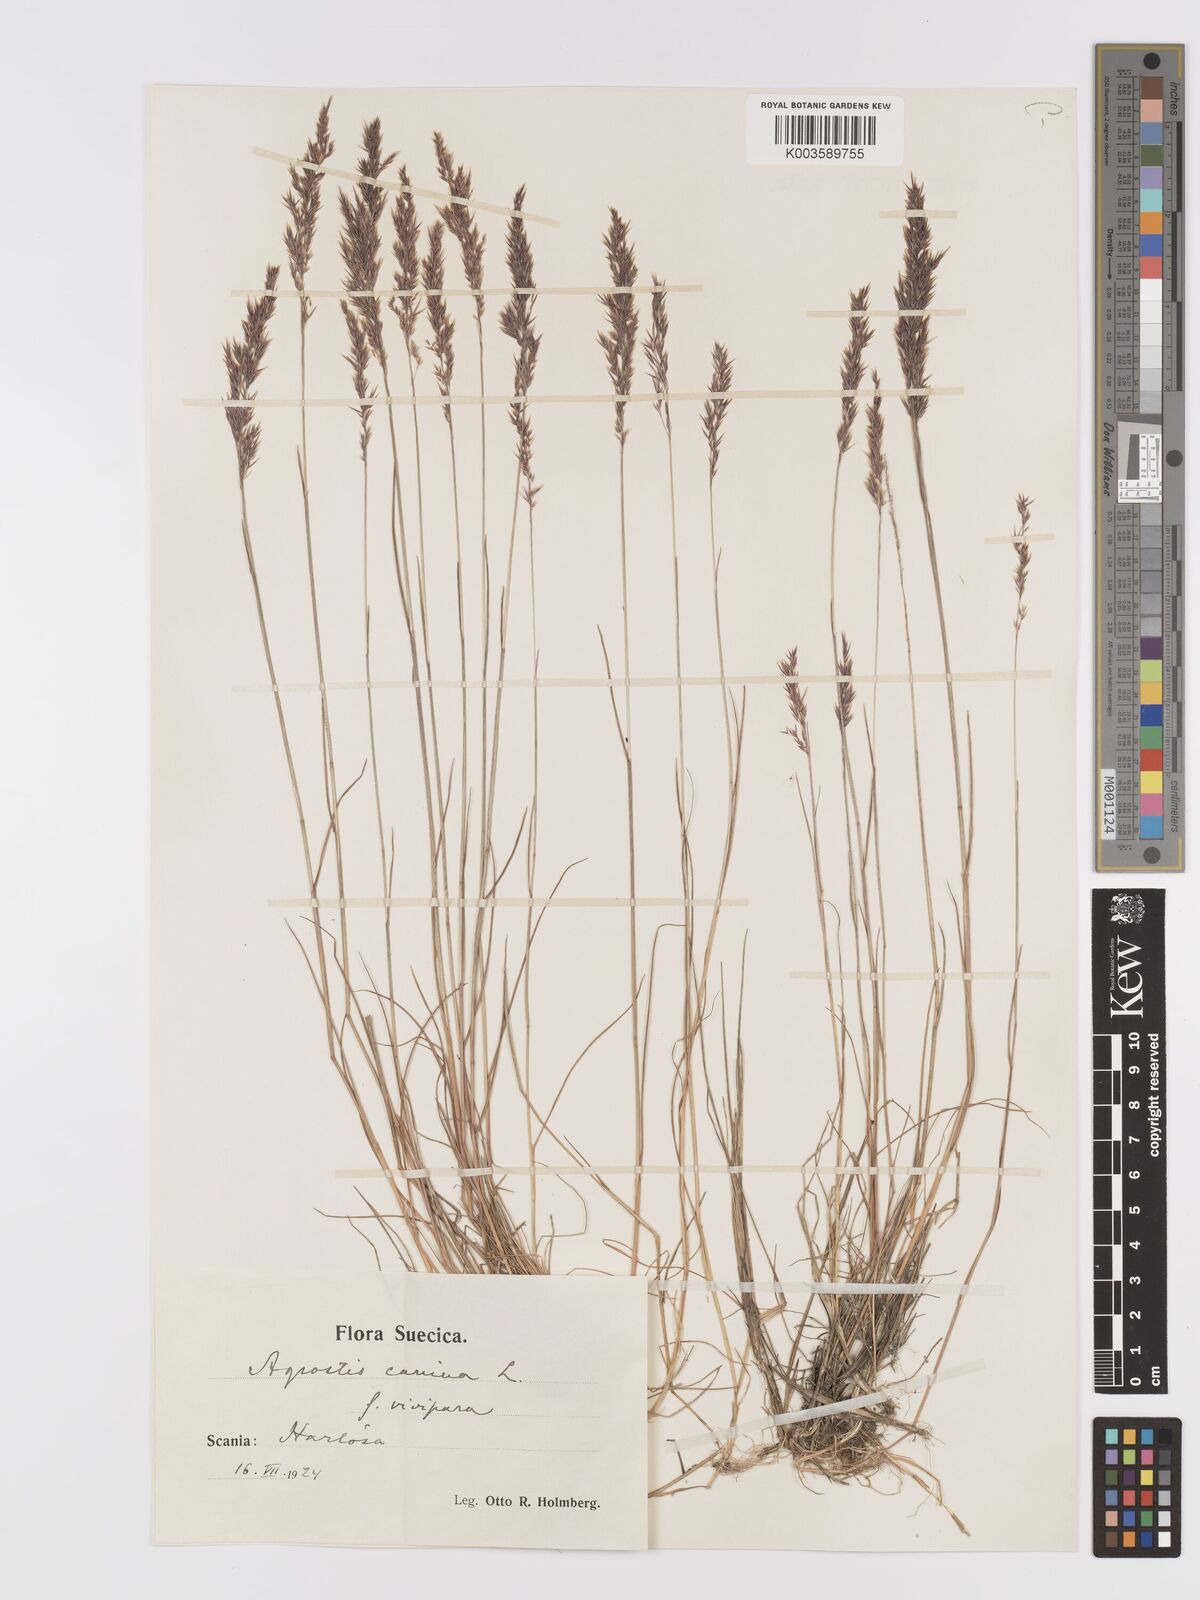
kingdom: Plantae
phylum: Tracheophyta
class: Liliopsida
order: Poales
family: Poaceae
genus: Agrostis
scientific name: Agrostis
